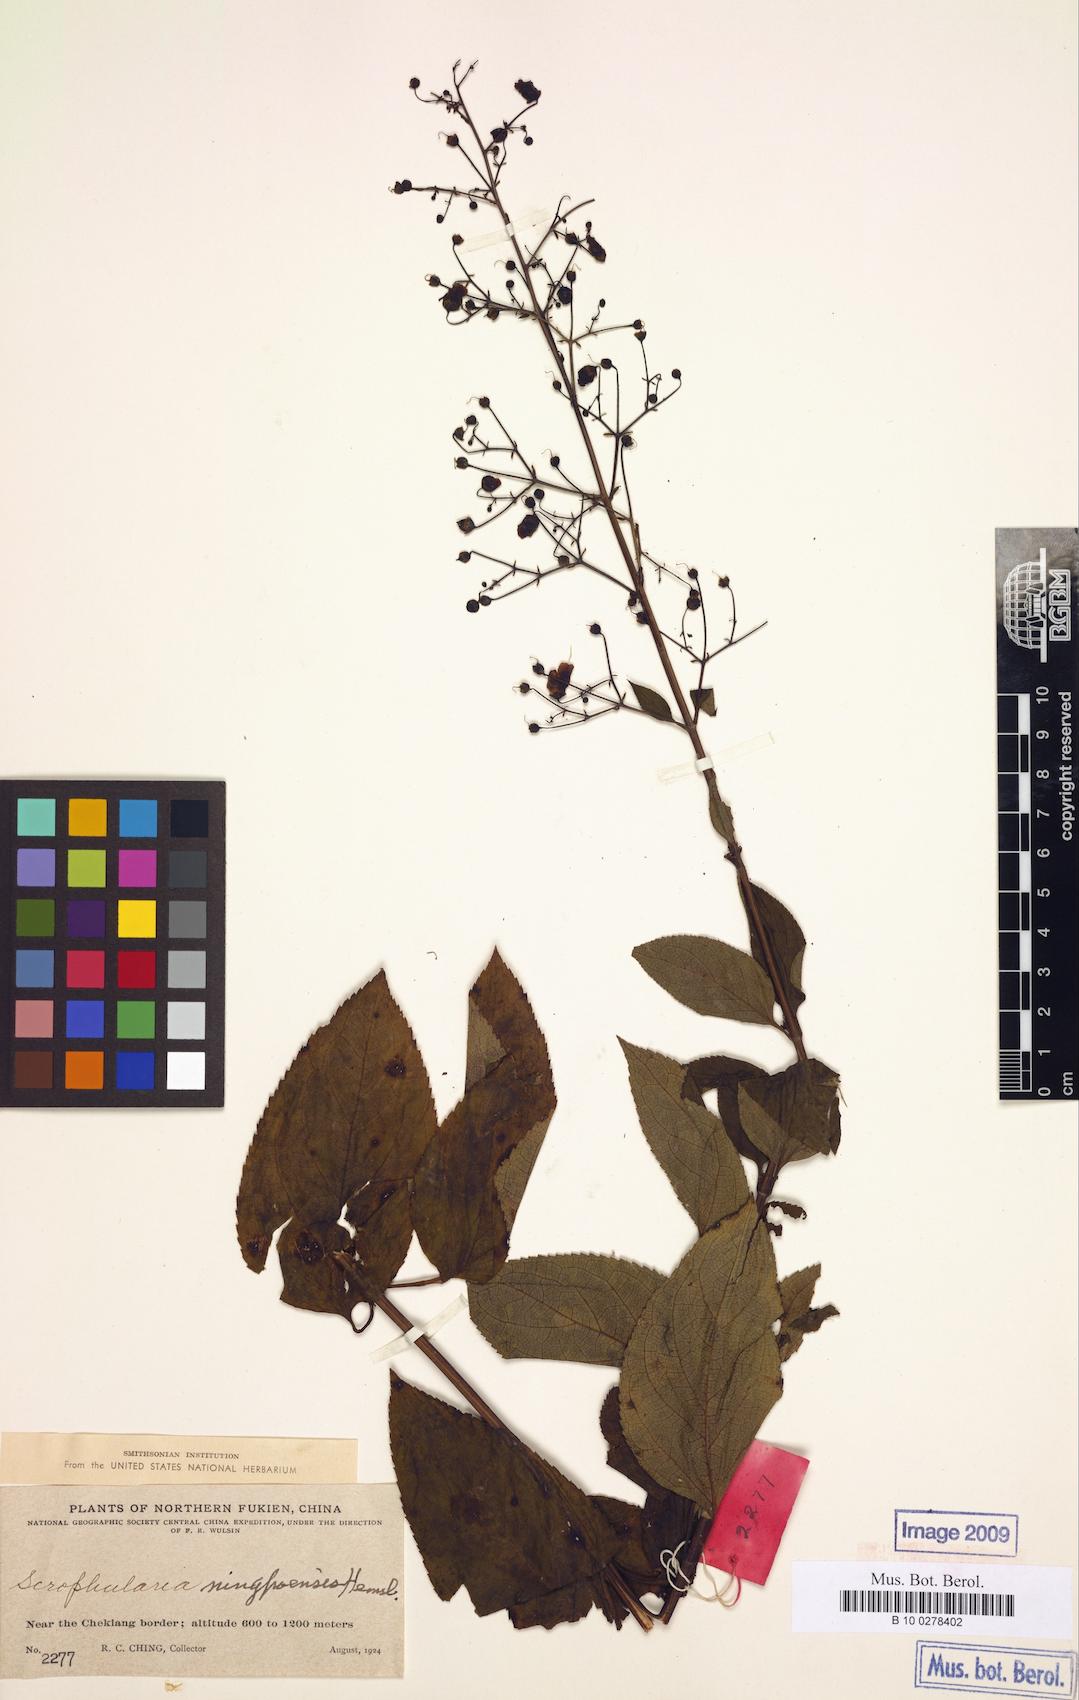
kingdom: Plantae
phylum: Tracheophyta
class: Magnoliopsida
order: Lamiales
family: Scrophulariaceae
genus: Scrophularia
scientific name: Scrophularia ningpoensis
